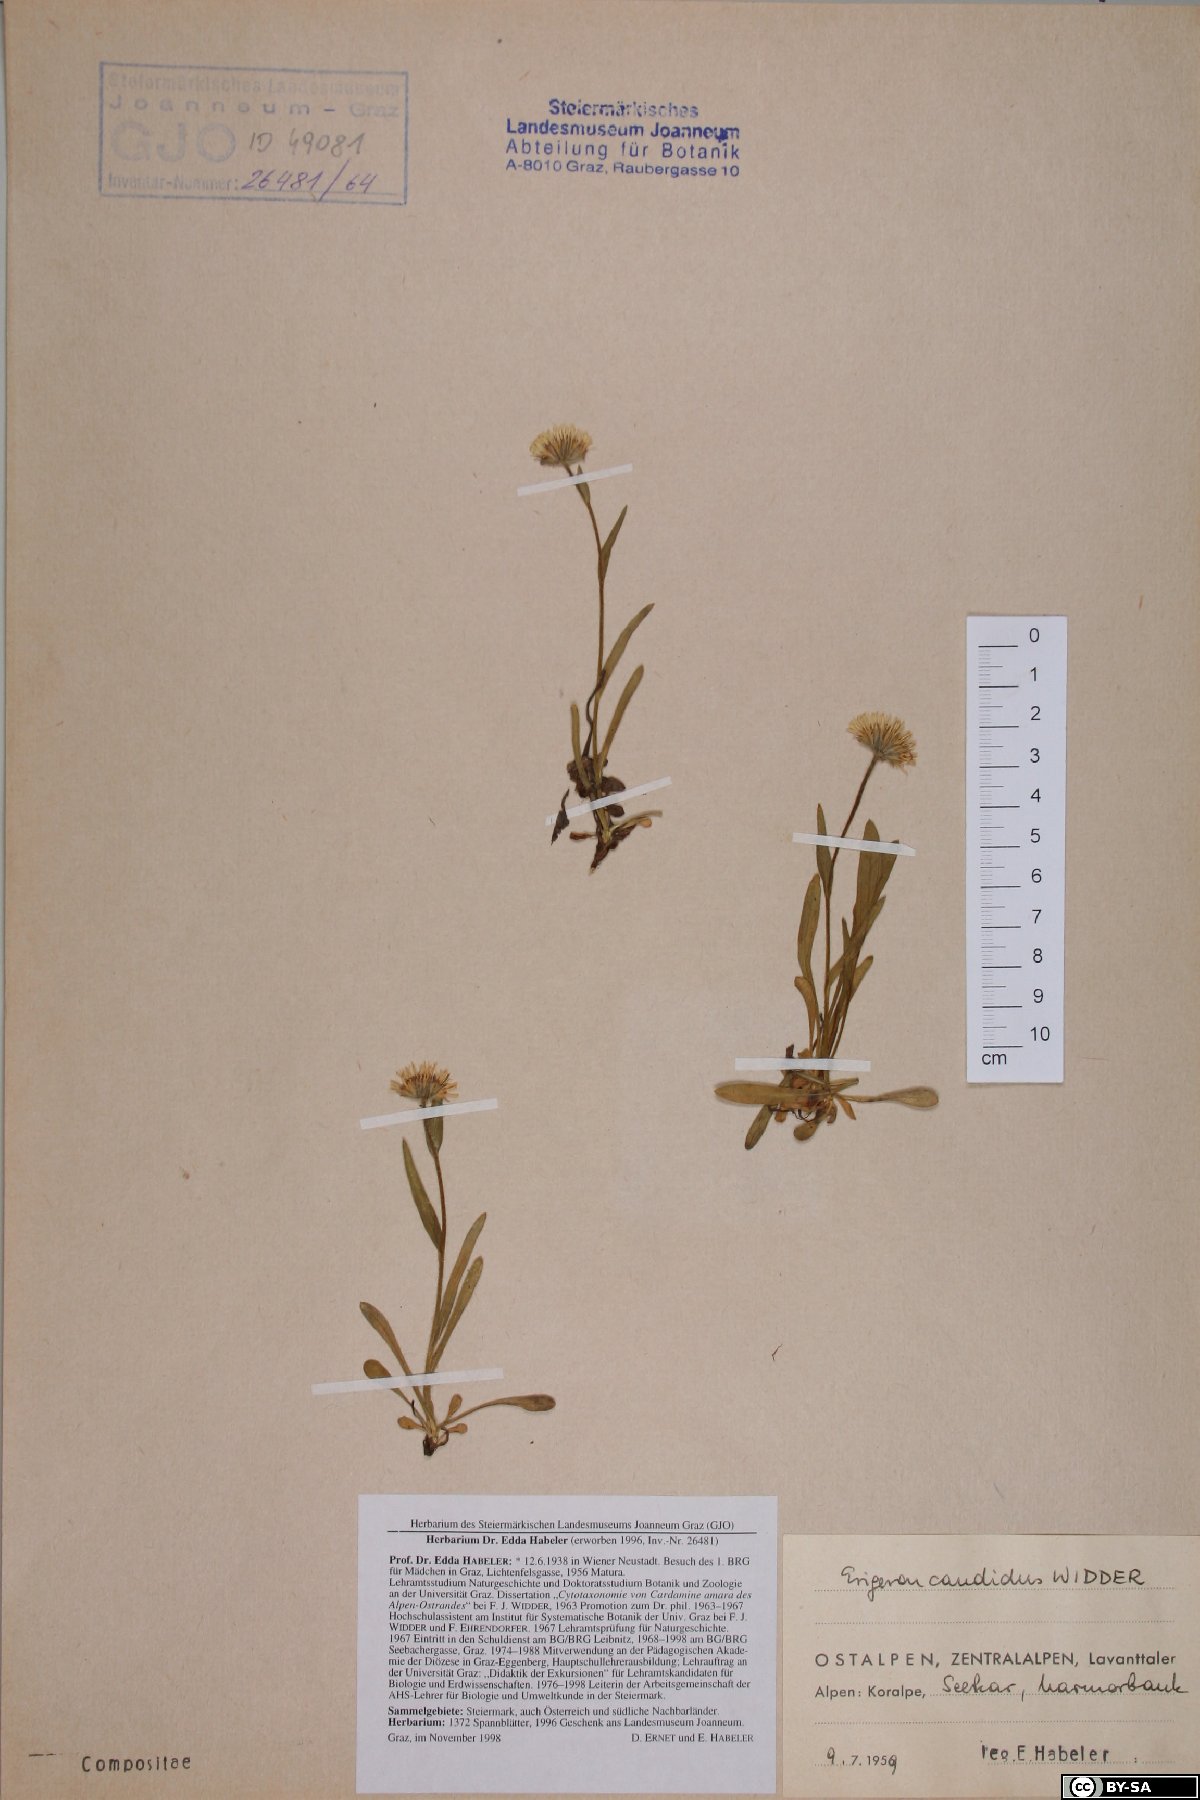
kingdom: Plantae
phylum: Tracheophyta
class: Magnoliopsida
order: Asterales
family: Asteraceae
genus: Erigeron
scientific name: Erigeron glabratus
